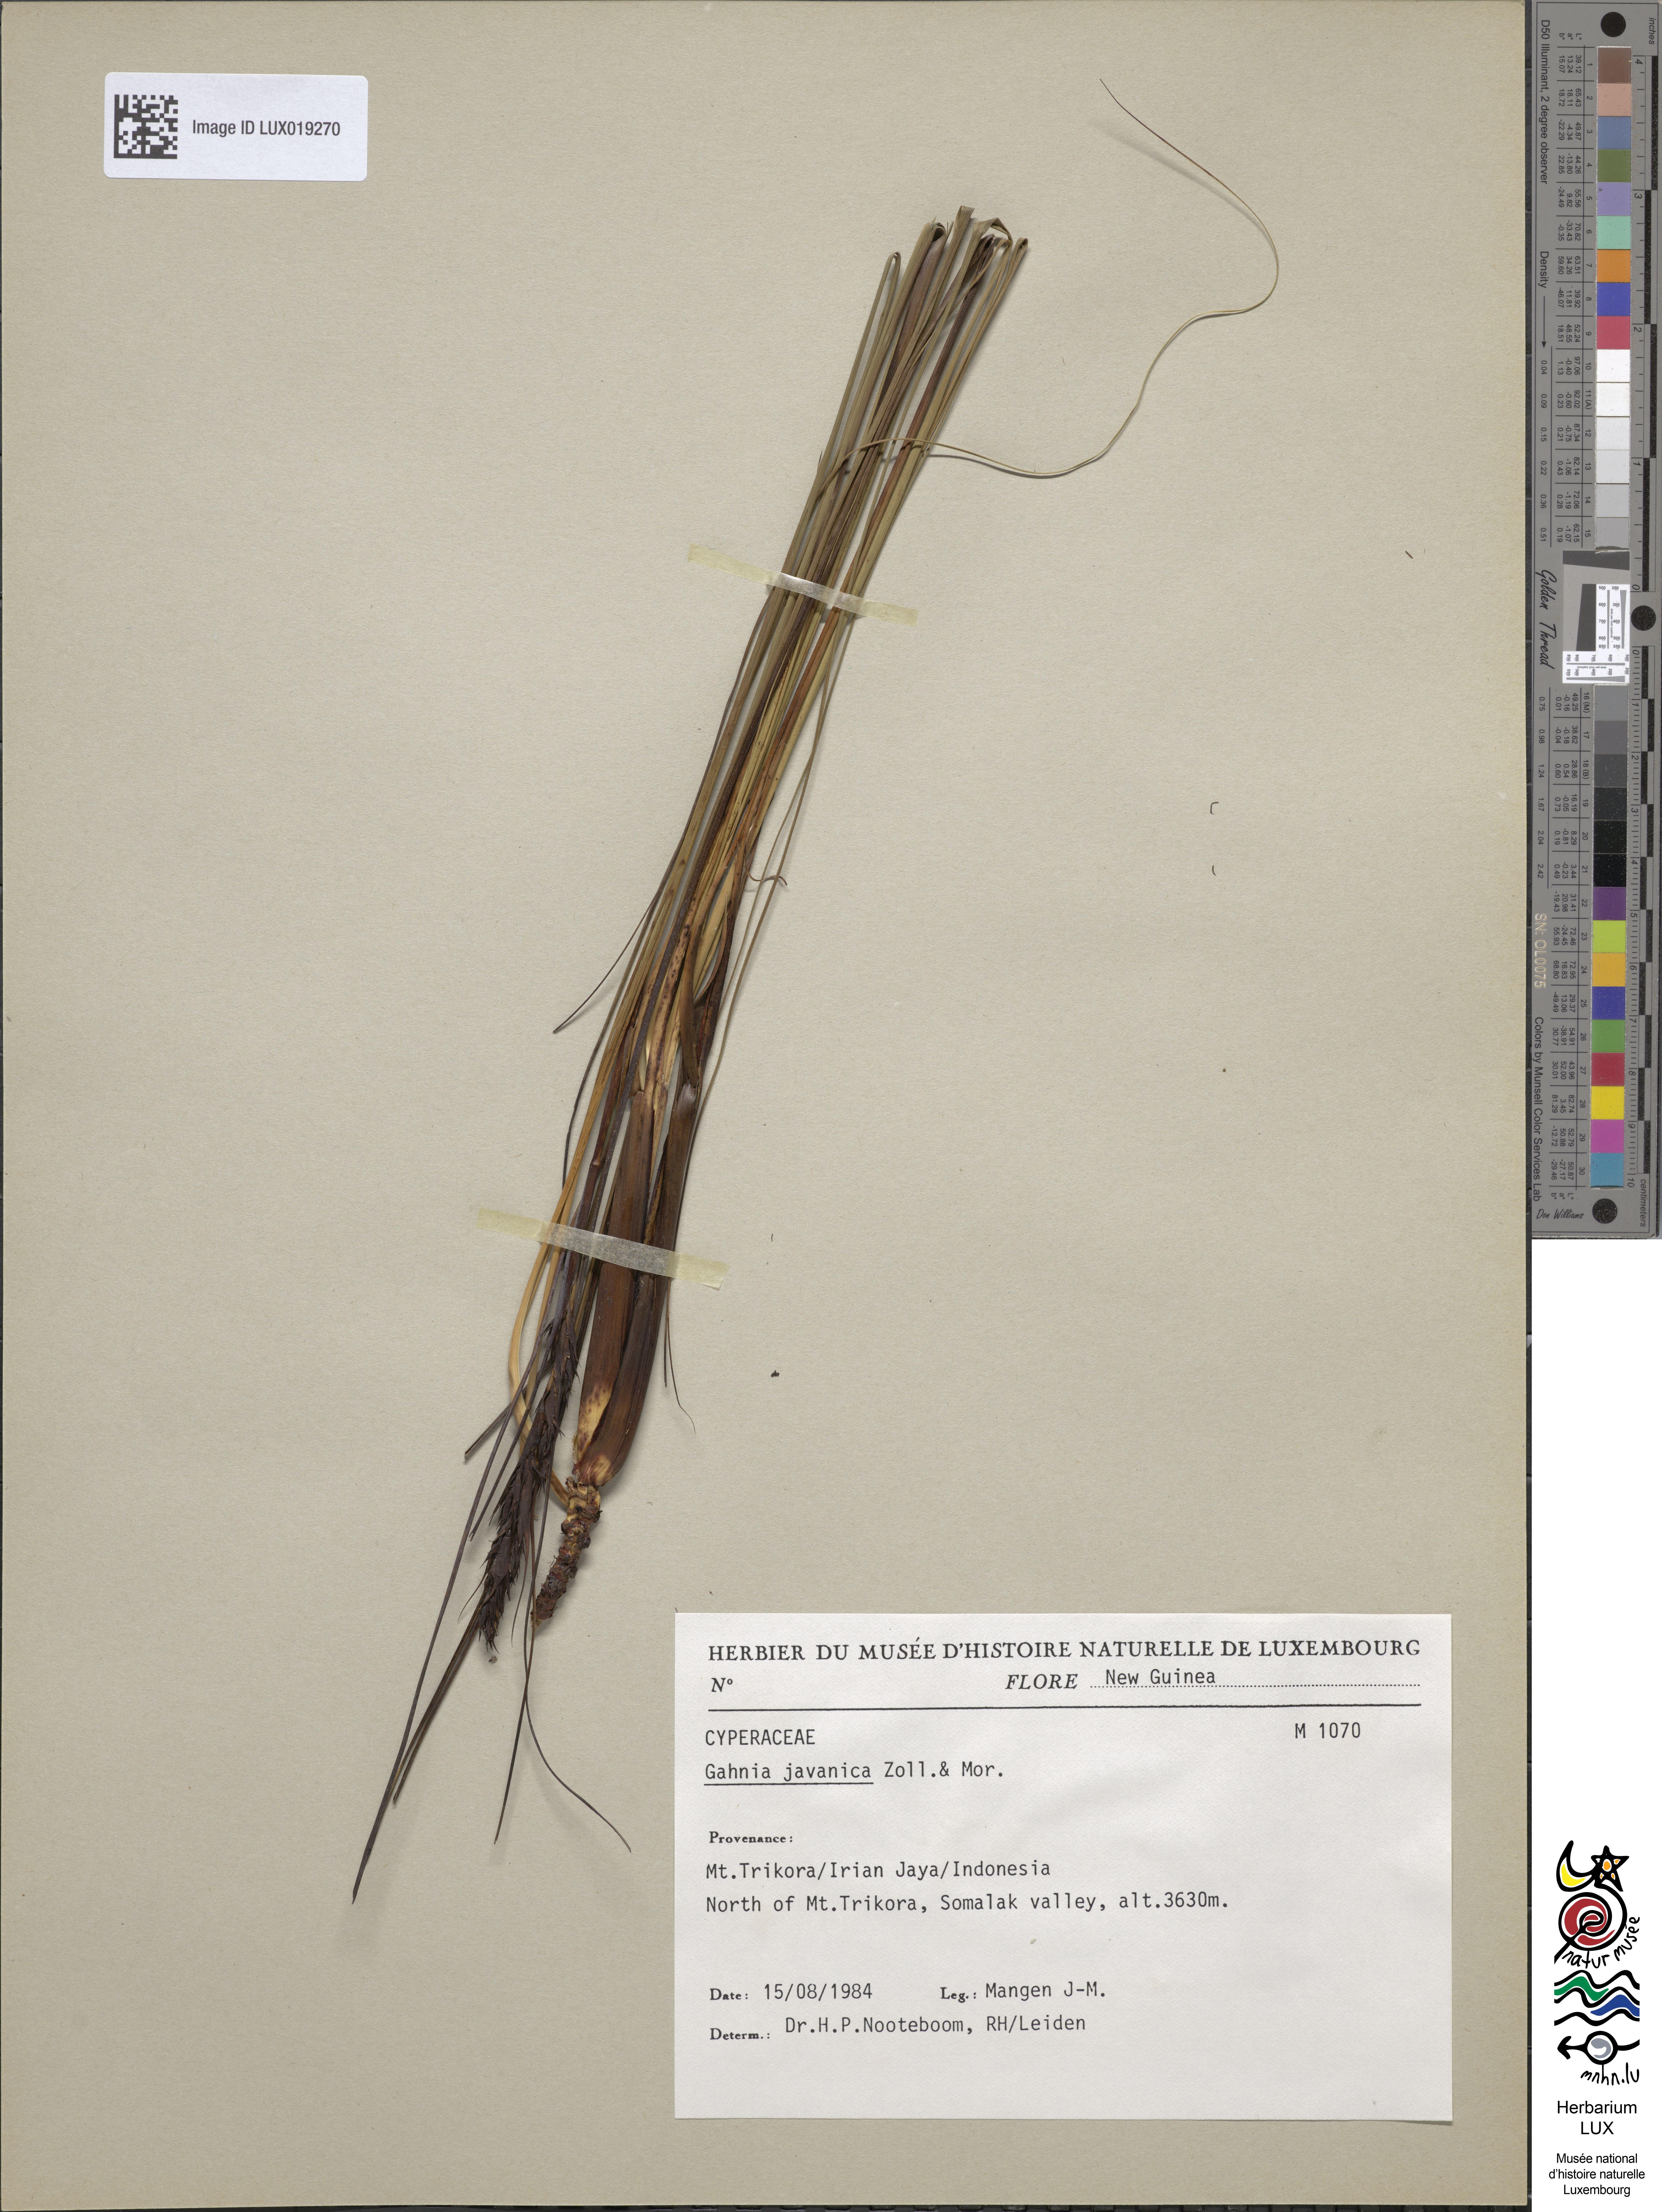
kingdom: Plantae
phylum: Tracheophyta
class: Liliopsida
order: Poales
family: Cyperaceae
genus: Gahnia
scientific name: Gahnia javanica
